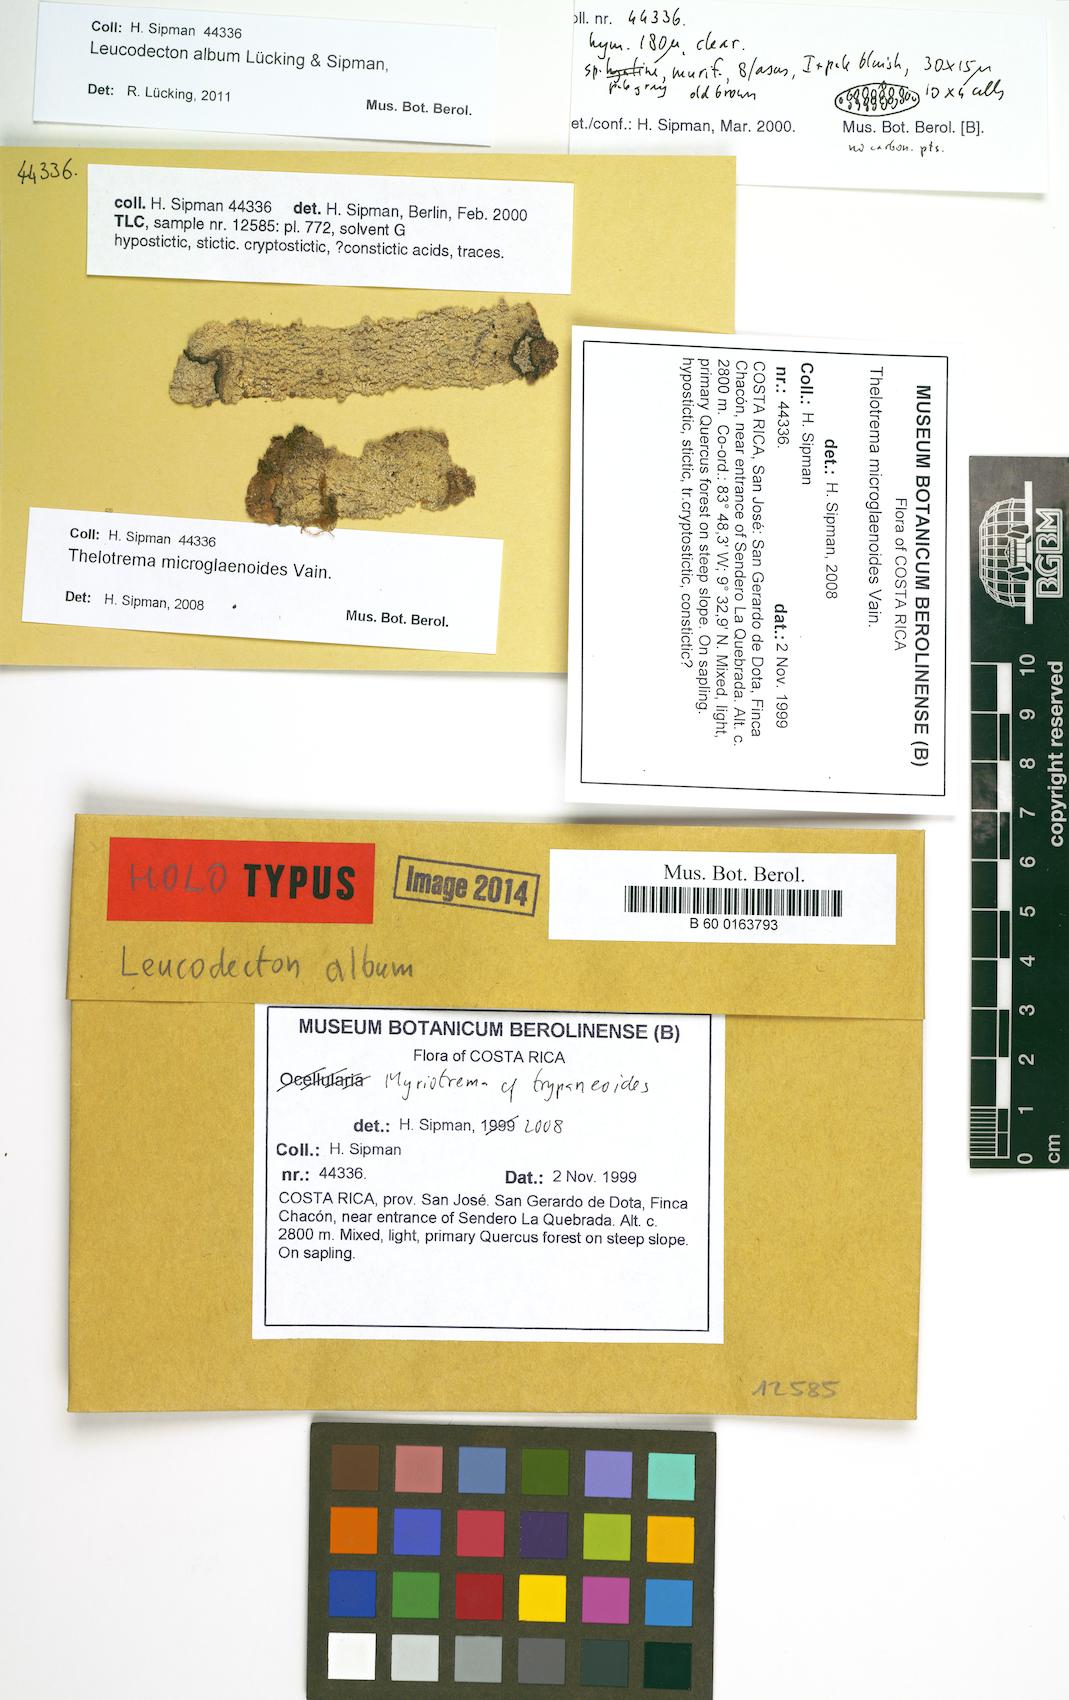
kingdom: Fungi
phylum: Ascomycota
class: Lecanoromycetes
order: Ostropales
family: Graphidaceae
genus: Leucodecton
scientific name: Leucodecton album
